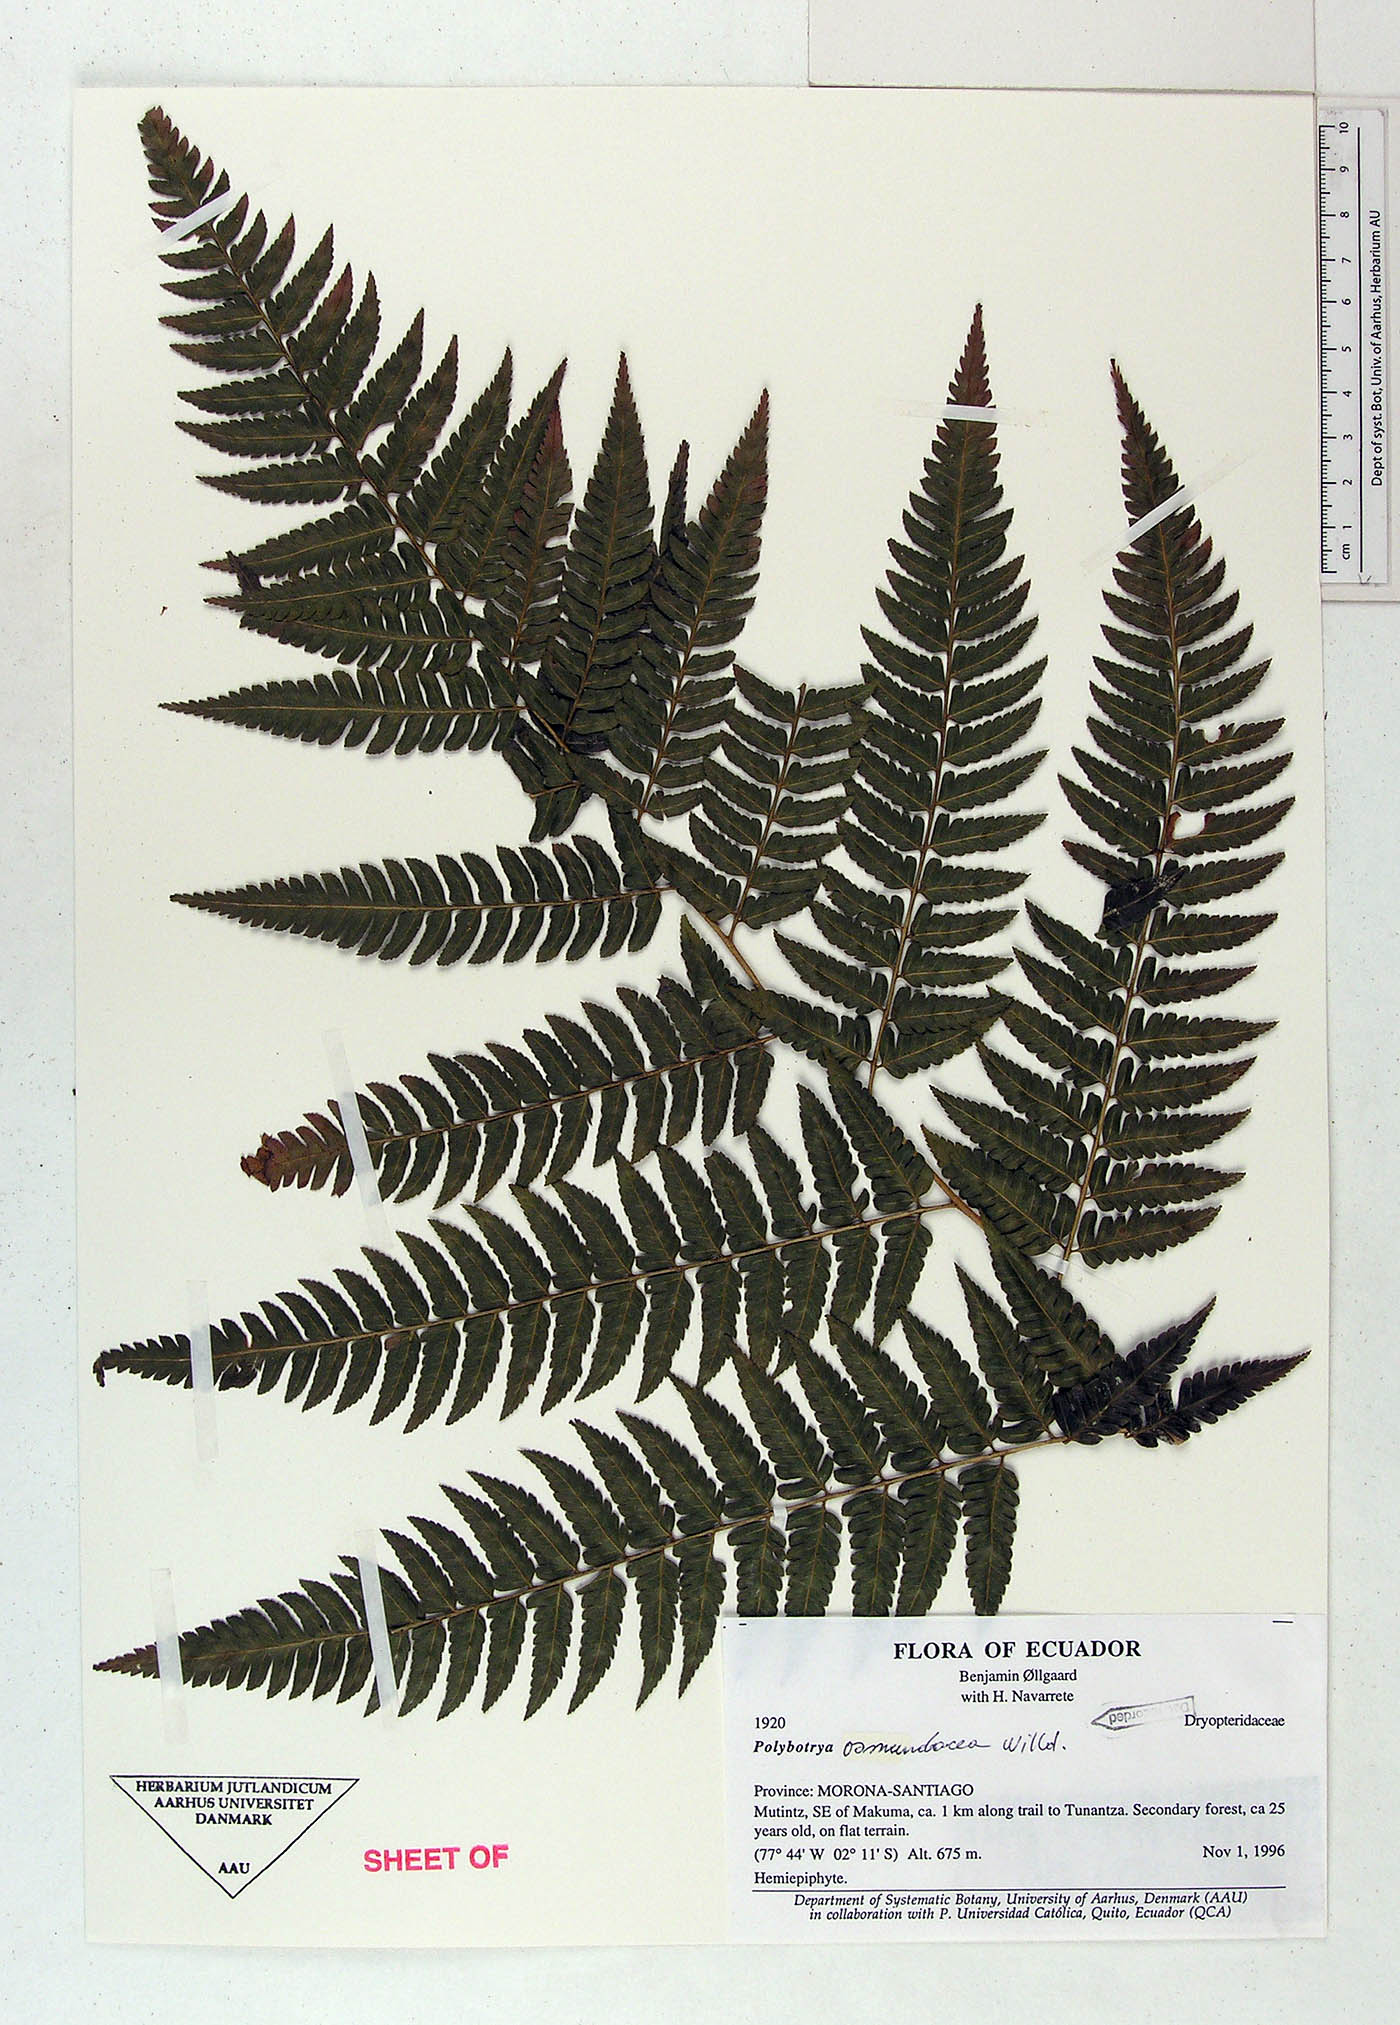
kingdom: Plantae
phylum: Tracheophyta
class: Polypodiopsida
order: Polypodiales
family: Dryopteridaceae
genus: Polybotrya
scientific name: Polybotrya osmundacea
